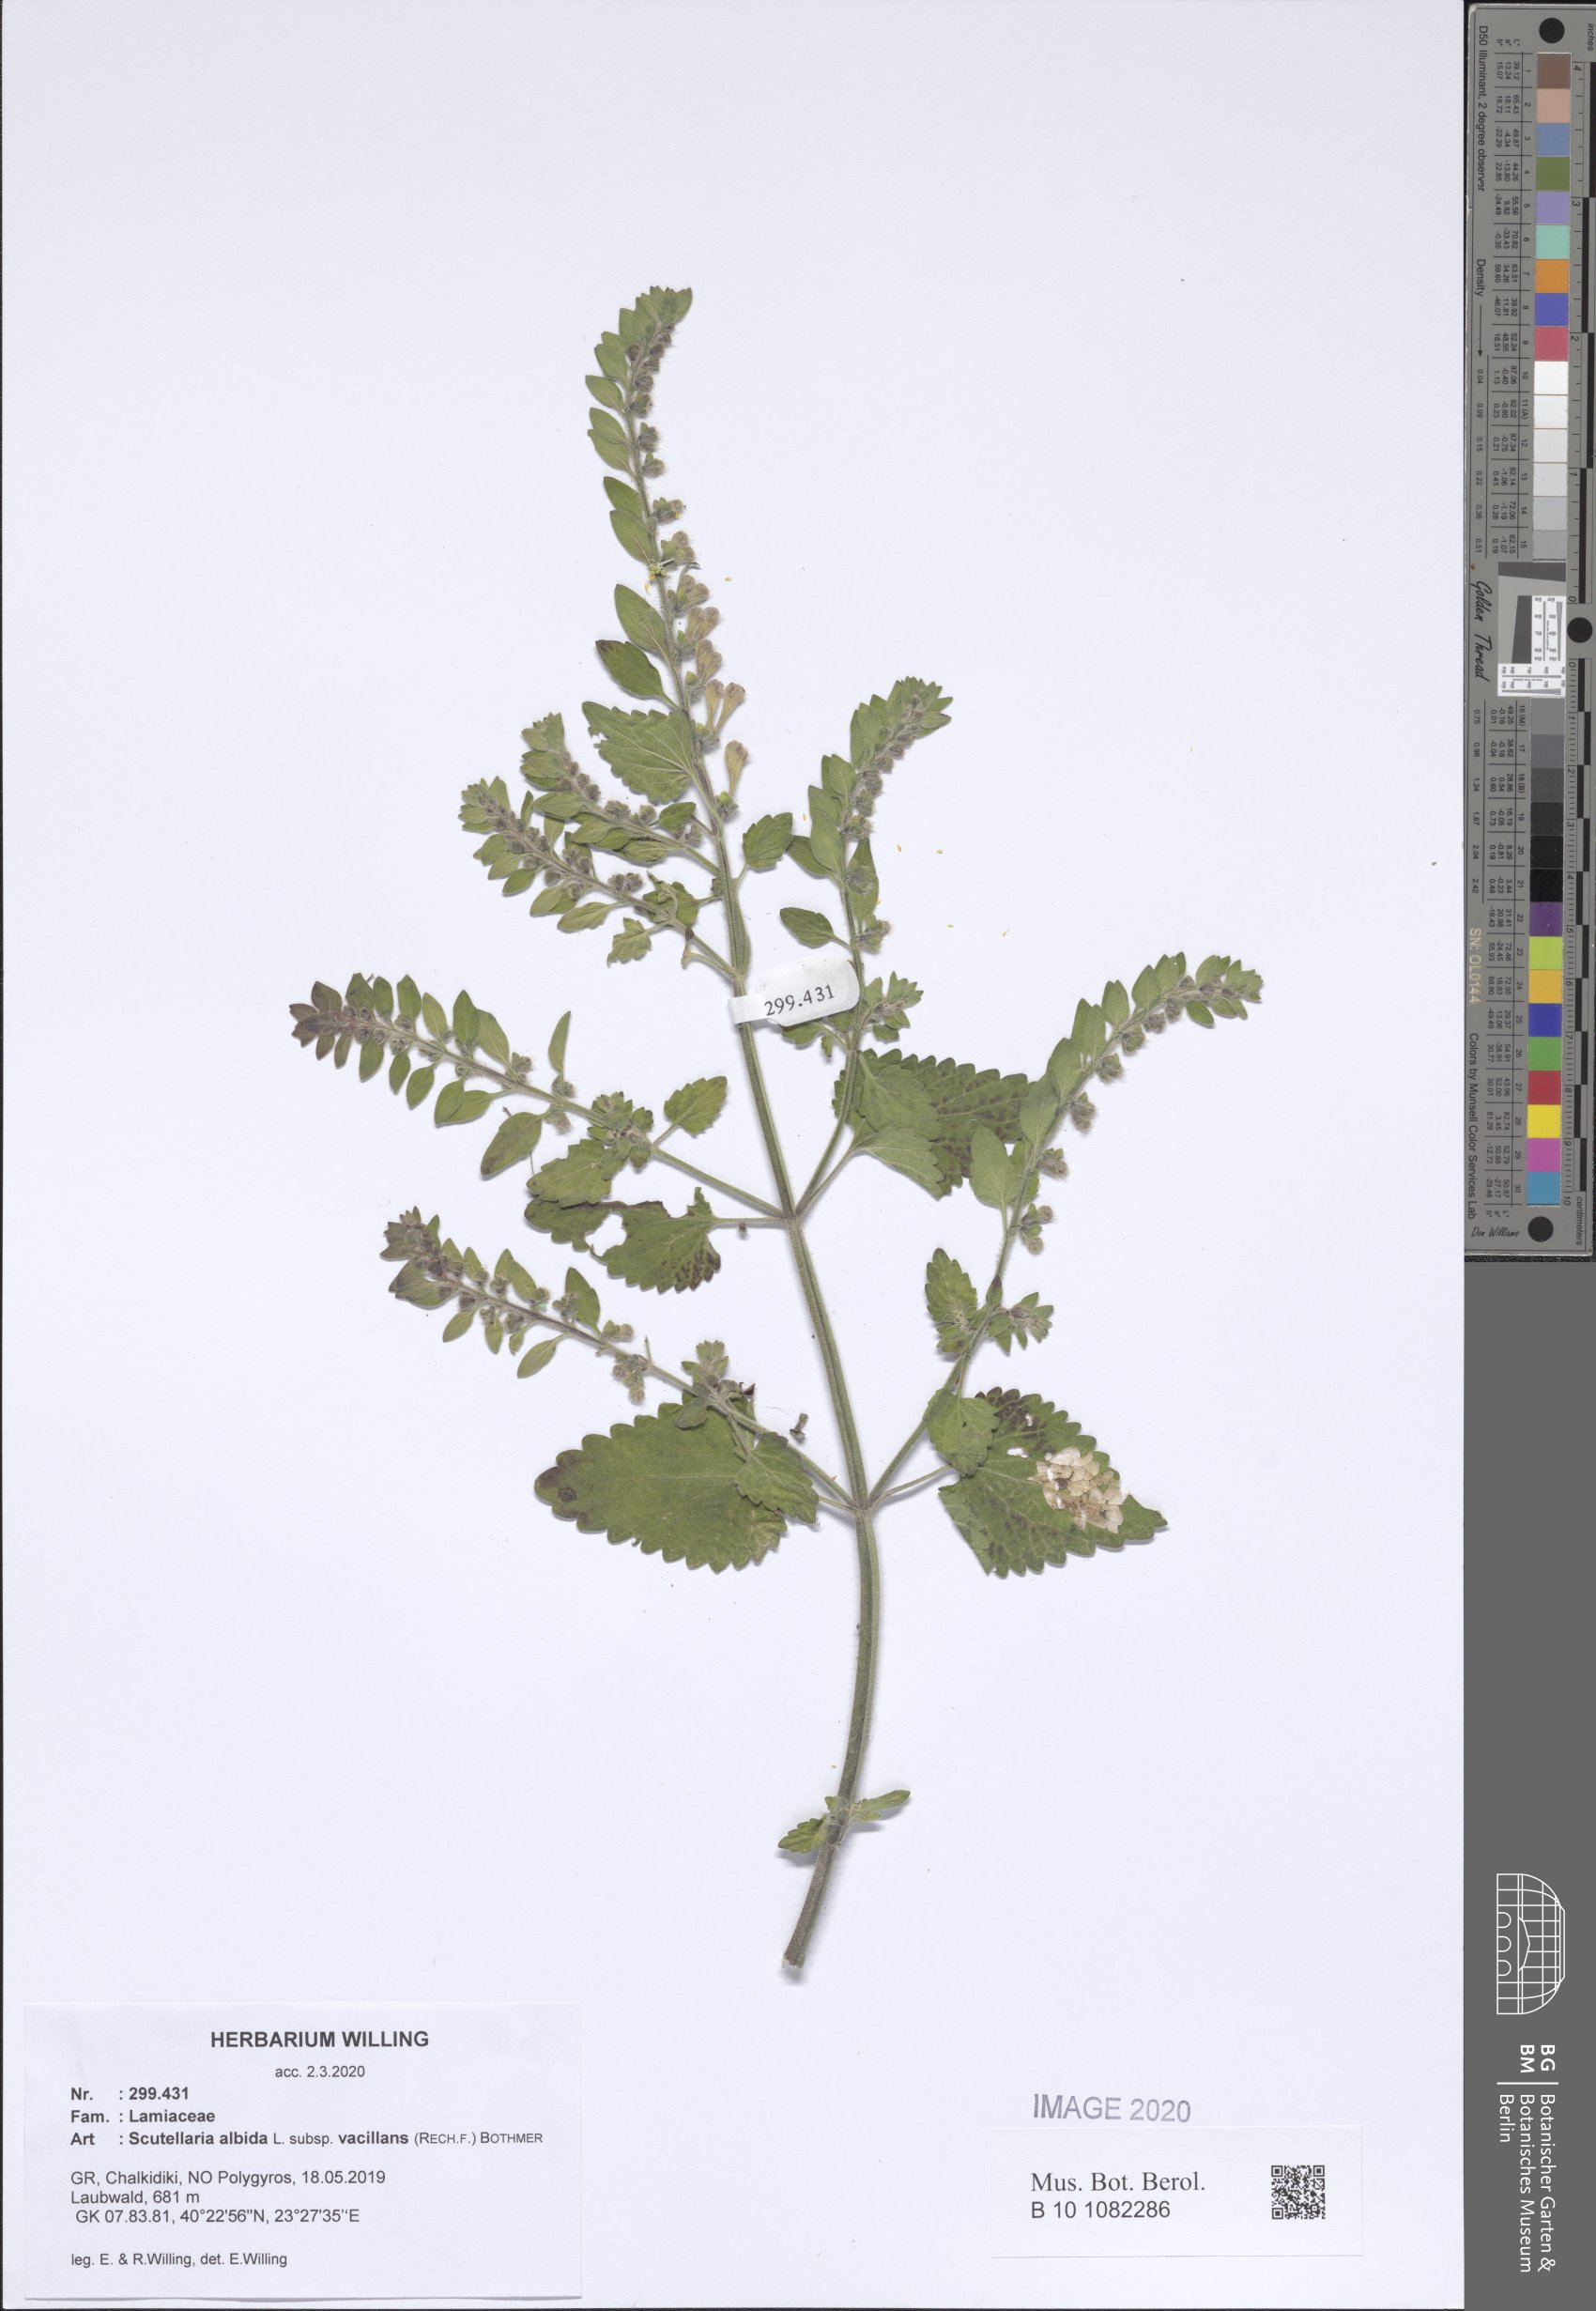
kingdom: Plantae
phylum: Tracheophyta
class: Magnoliopsida
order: Lamiales
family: Lamiaceae
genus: Scutellaria
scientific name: Scutellaria albida
